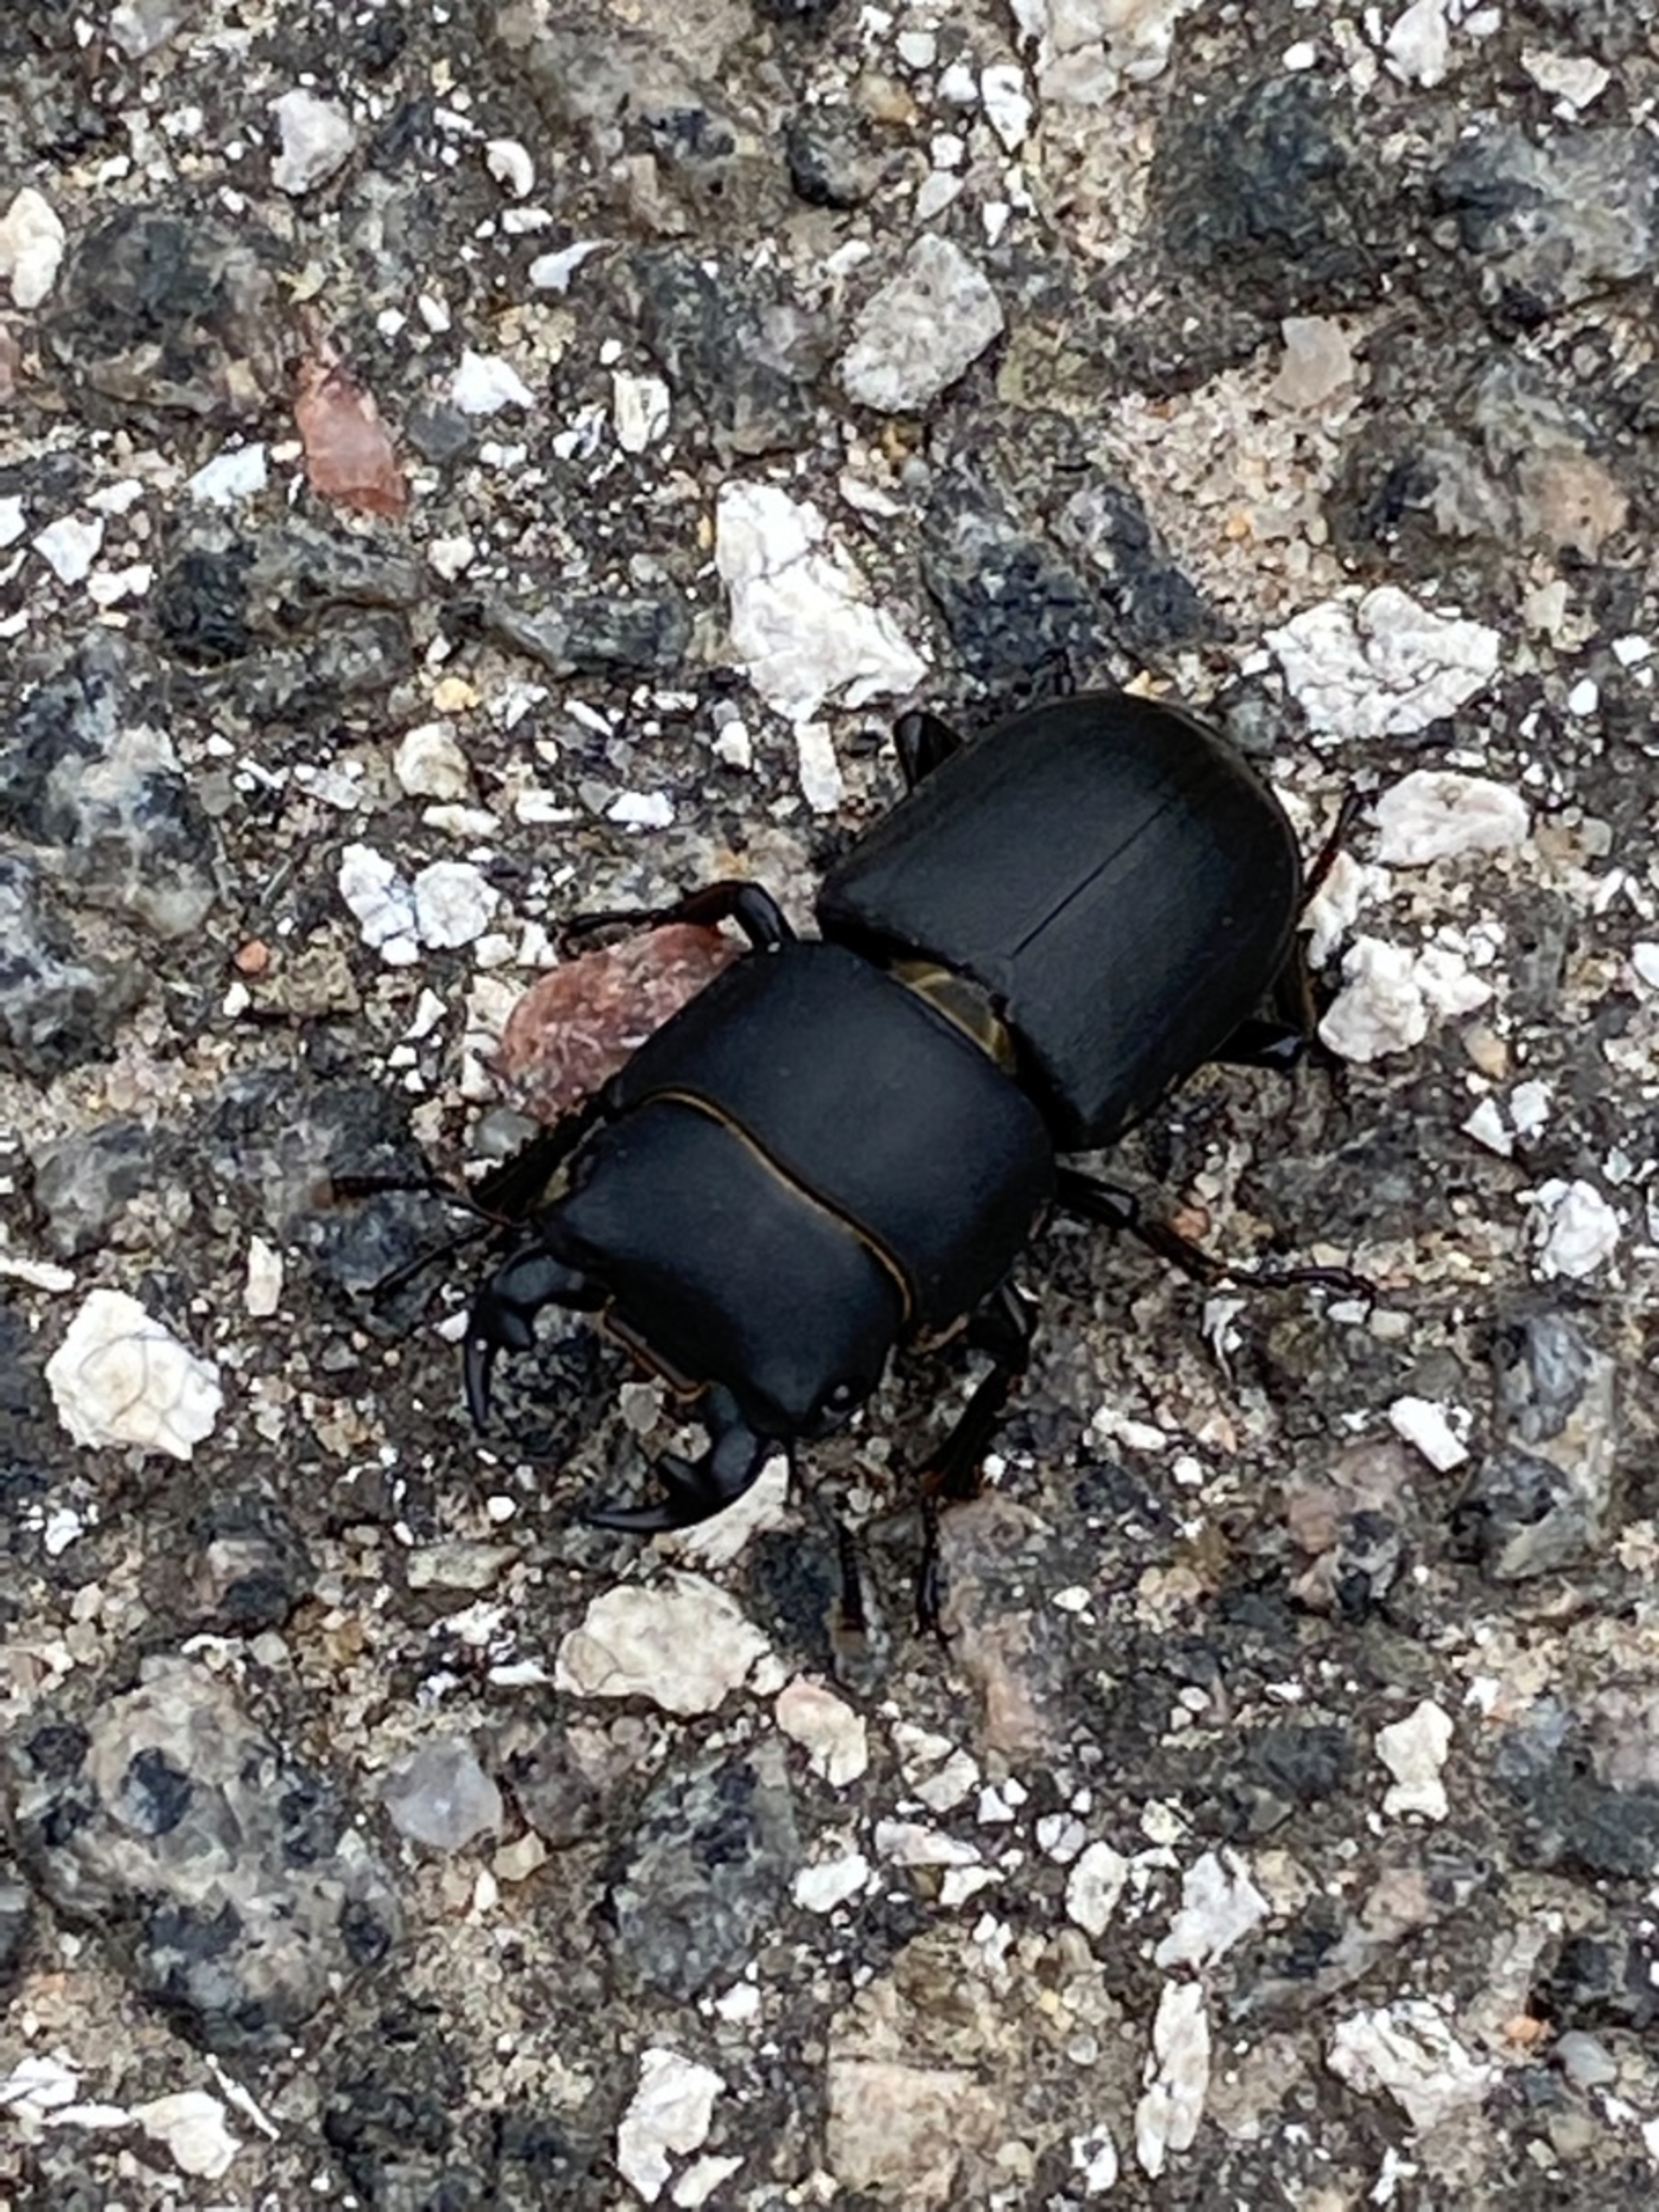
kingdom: Animalia
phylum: Arthropoda
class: Insecta
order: Coleoptera
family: Lucanidae
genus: Dorcus
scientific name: Dorcus parallelipipedus
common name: Bøghjort
